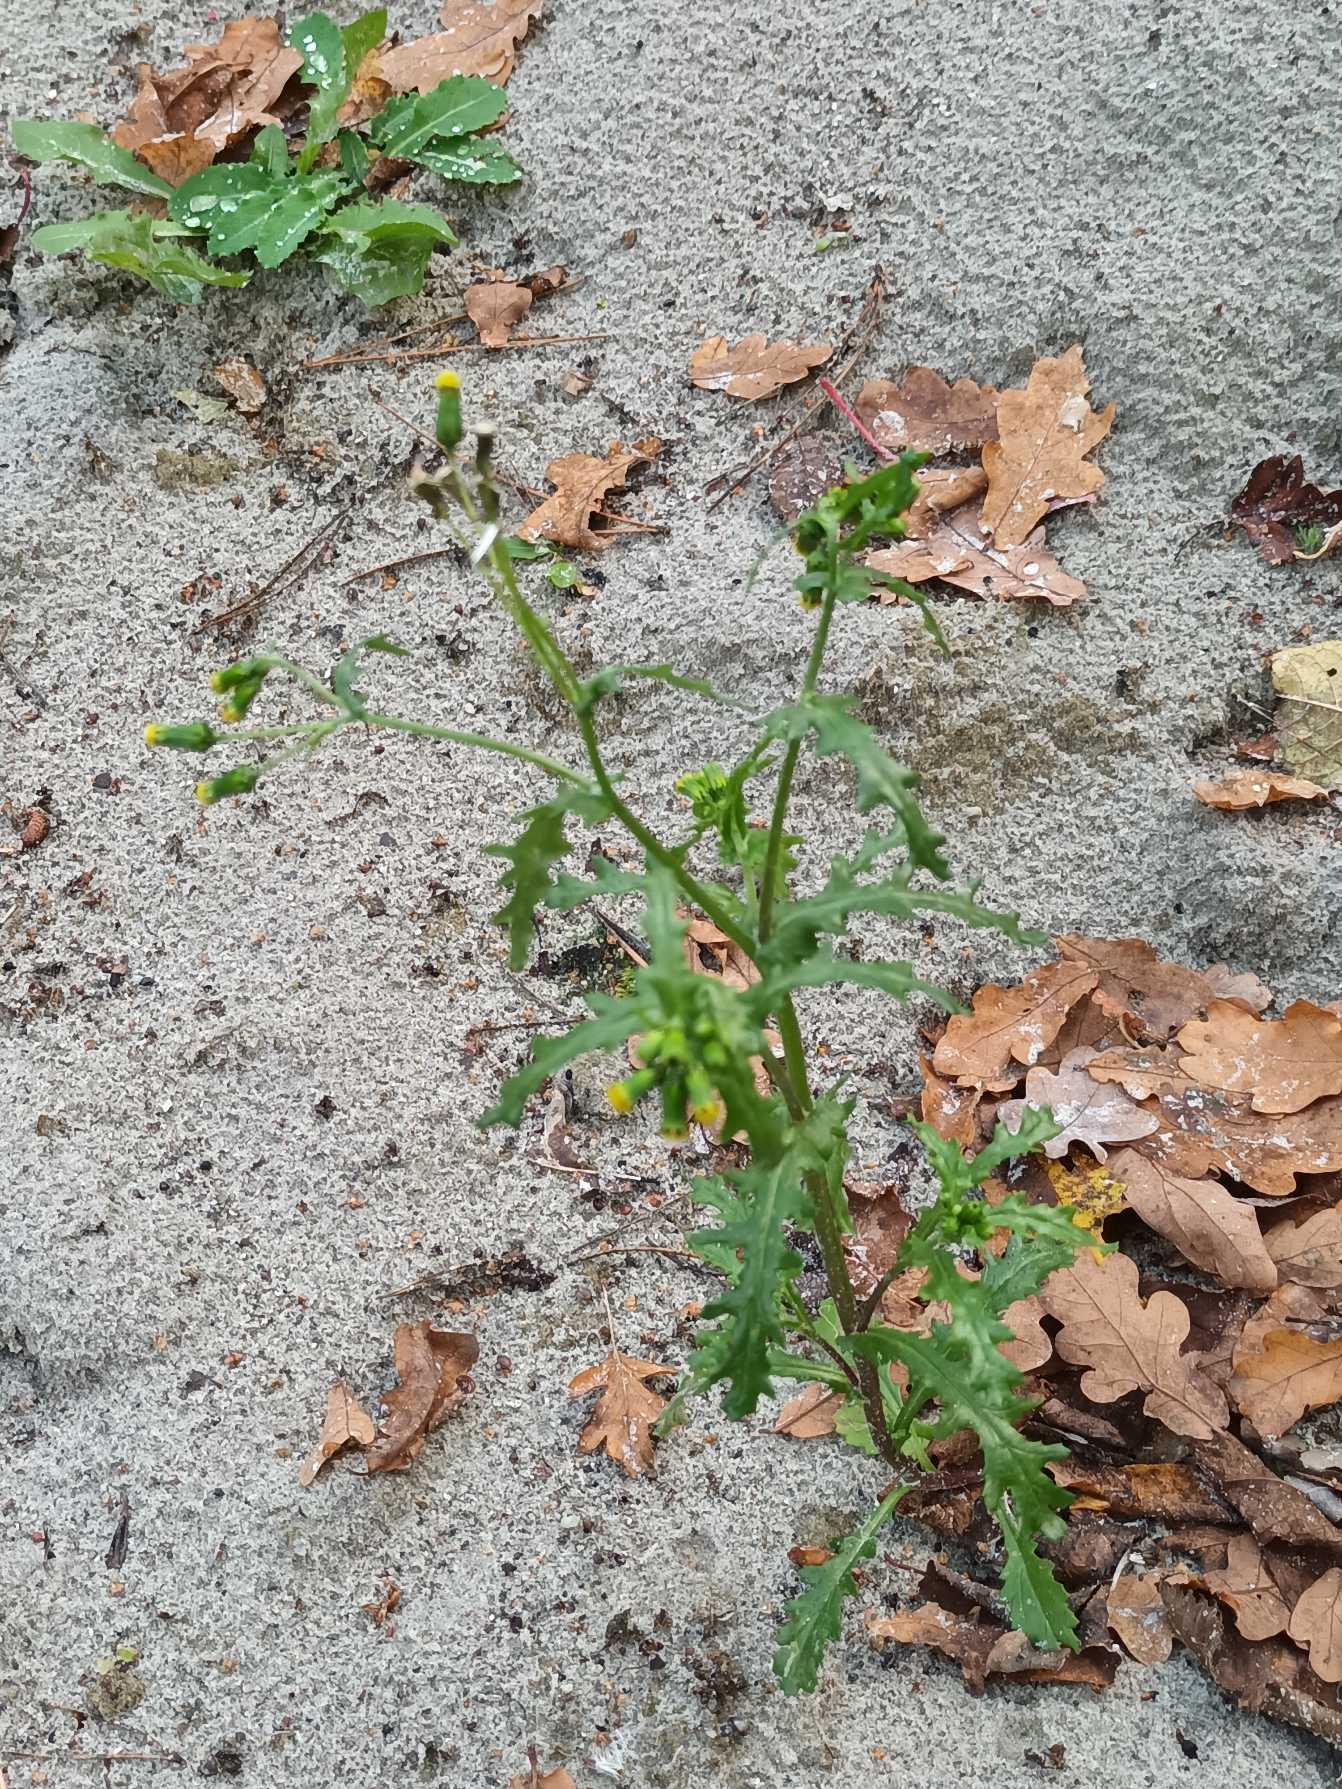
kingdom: Plantae
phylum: Tracheophyta
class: Magnoliopsida
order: Asterales
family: Asteraceae
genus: Senecio
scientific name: Senecio vulgaris
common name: Almindelig brandbæger
